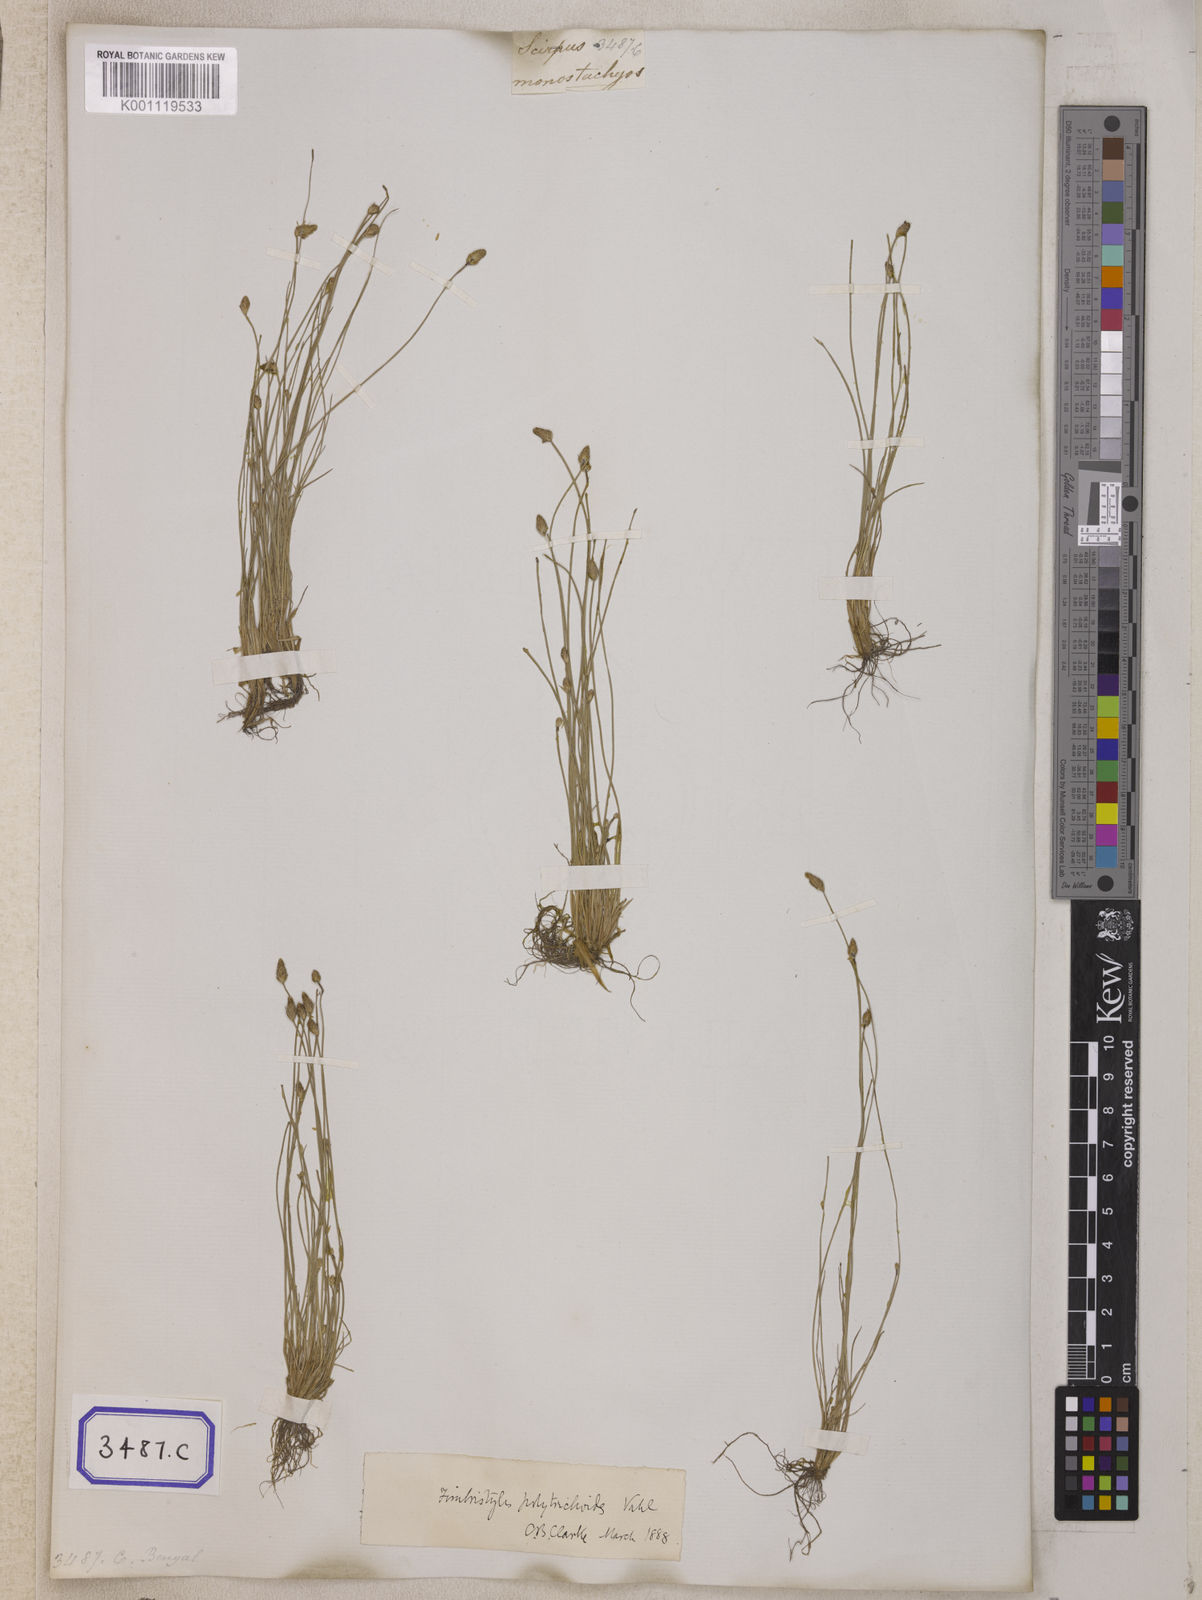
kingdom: Plantae
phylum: Tracheophyta
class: Liliopsida
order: Poales
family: Cyperaceae
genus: Isolepis
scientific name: Isolepis
